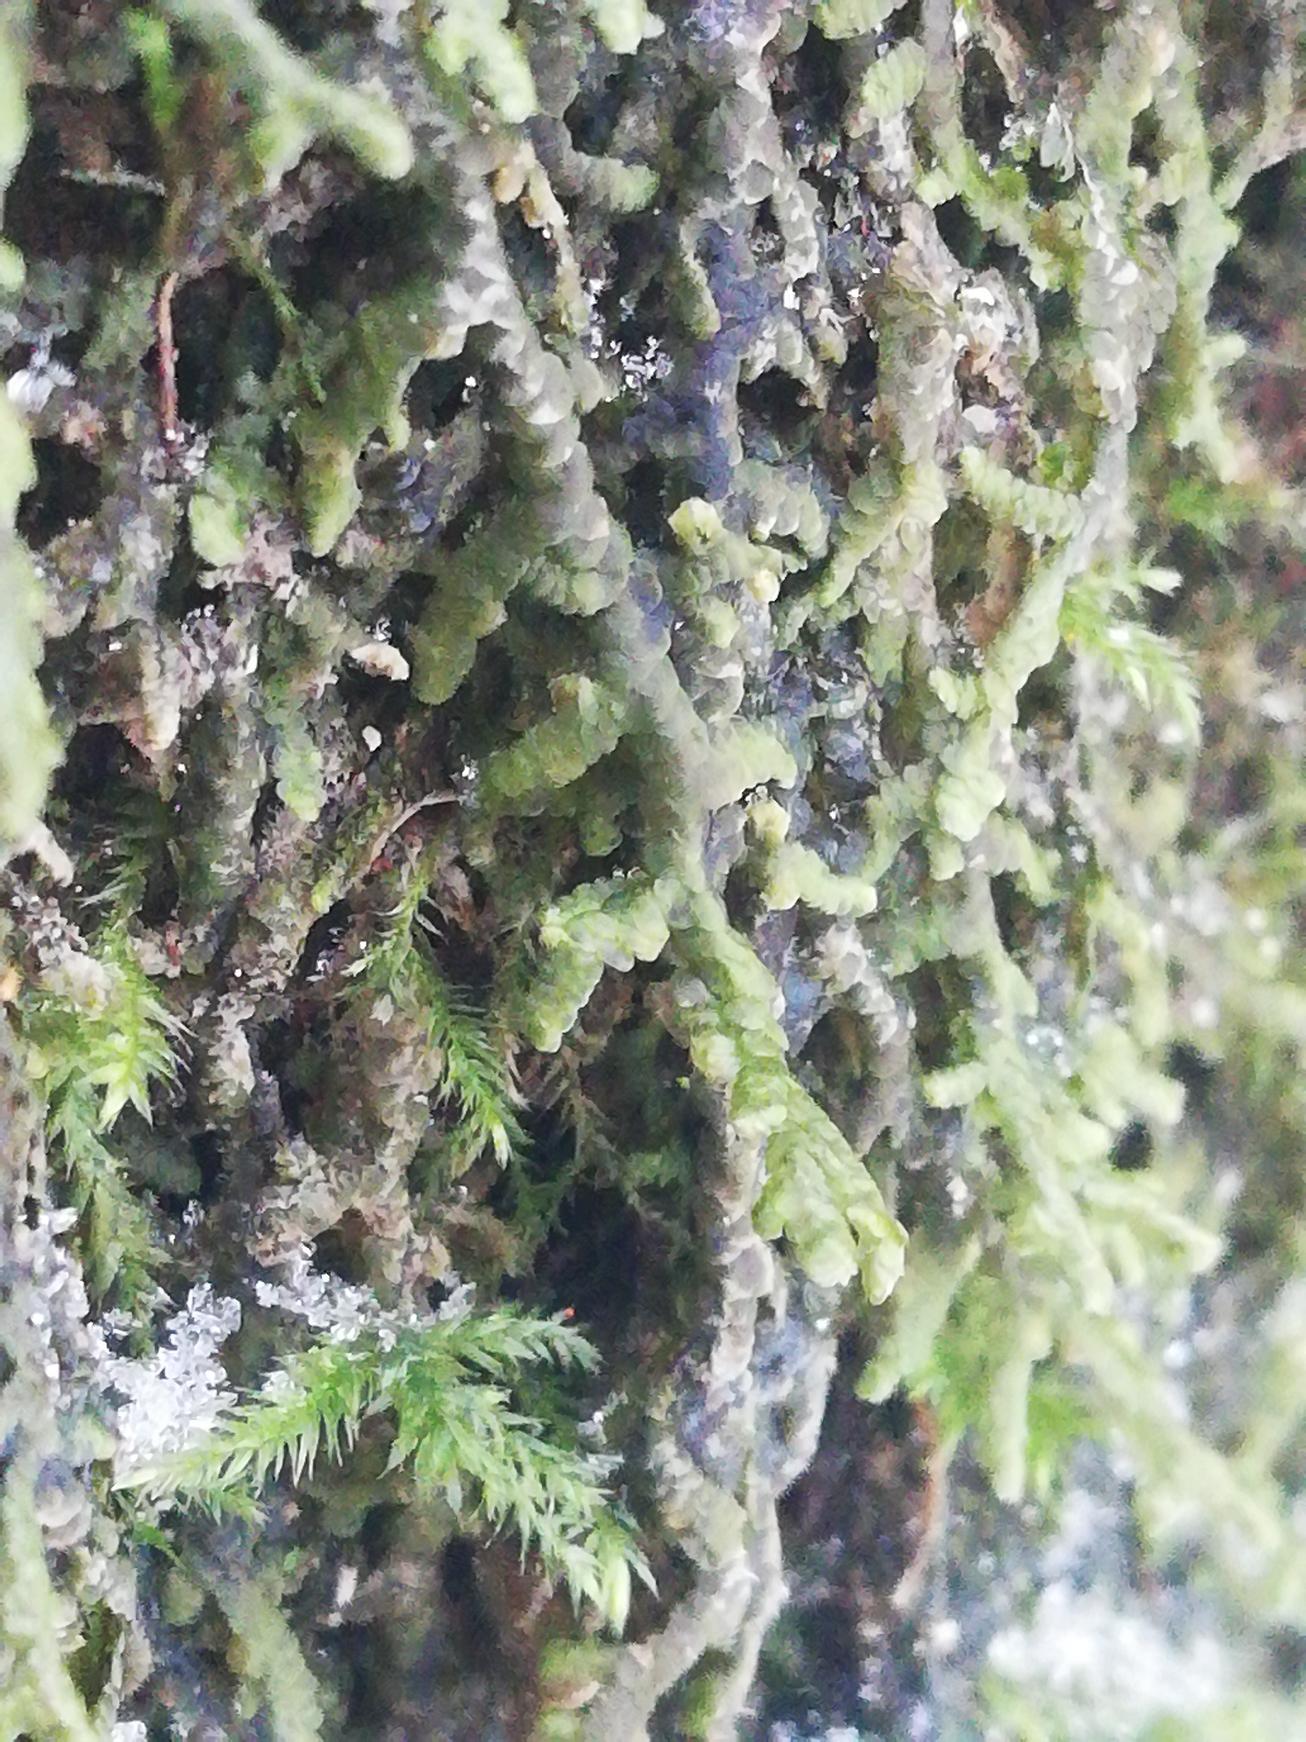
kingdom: Plantae
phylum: Marchantiophyta
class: Jungermanniopsida
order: Porellales
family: Frullaniaceae
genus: Frullania
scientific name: Frullania
